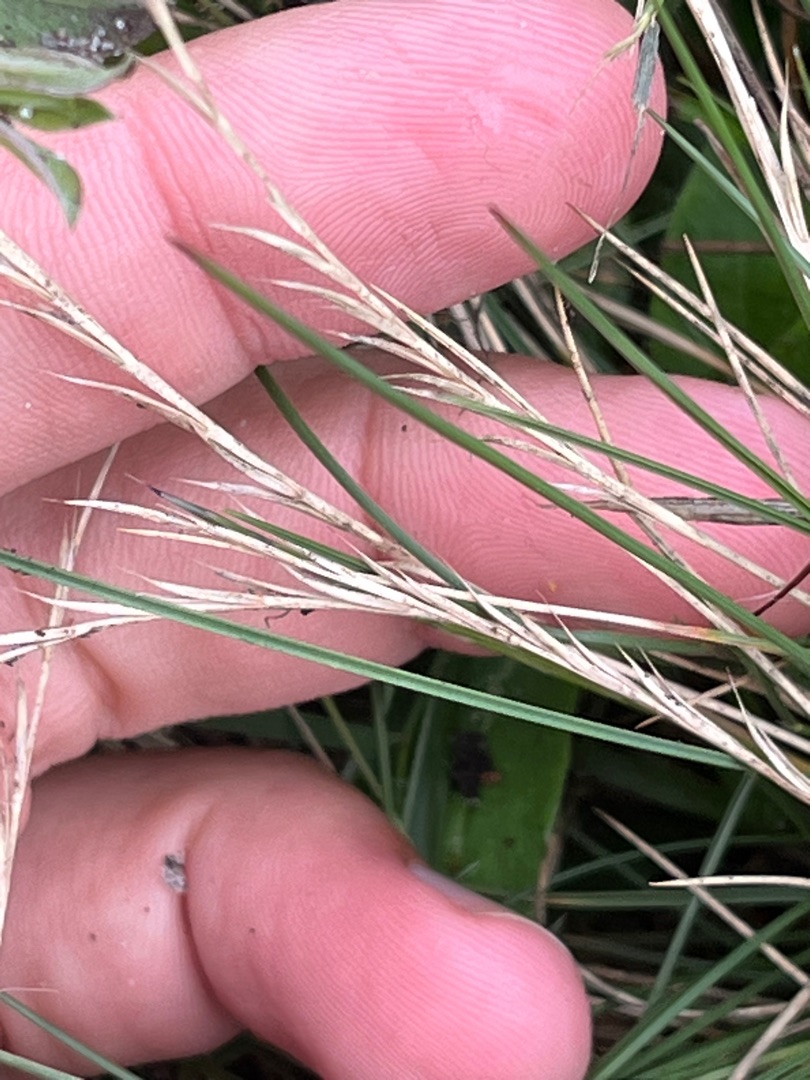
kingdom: Plantae
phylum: Tracheophyta
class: Liliopsida
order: Poales
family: Poaceae
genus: Nardus
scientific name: Nardus stricta
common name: Katteskæg
